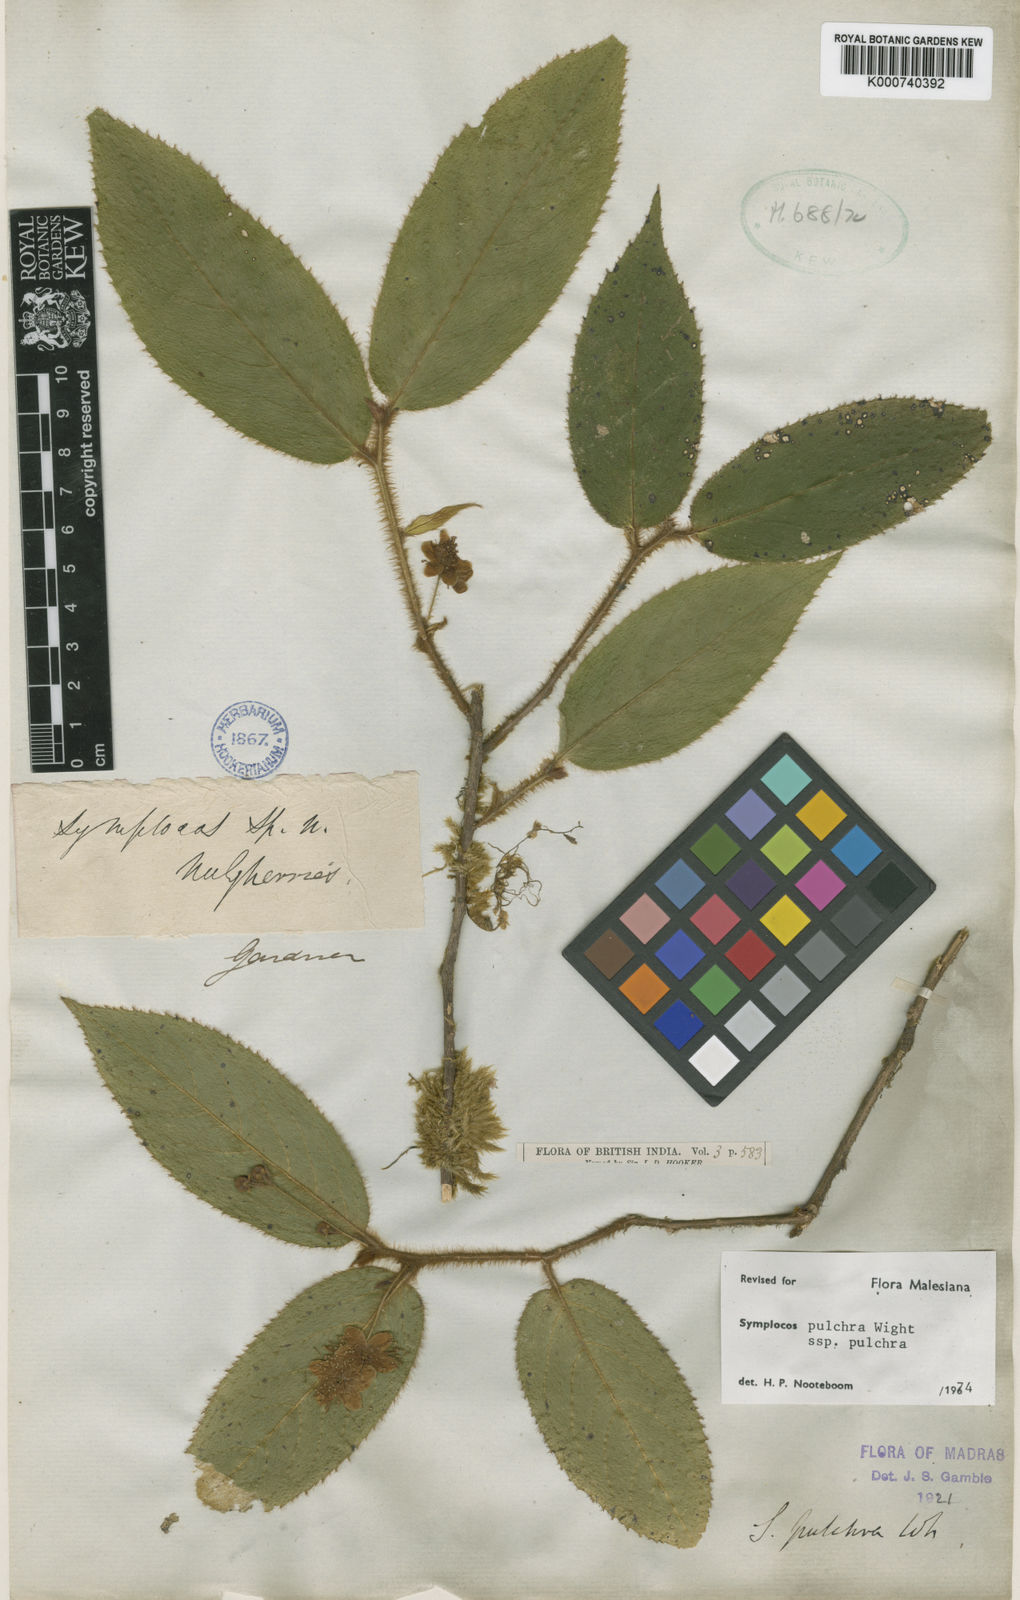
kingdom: Plantae
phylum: Tracheophyta
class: Magnoliopsida
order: Ericales
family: Symplocaceae
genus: Symplocos
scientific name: Symplocos pulchra
